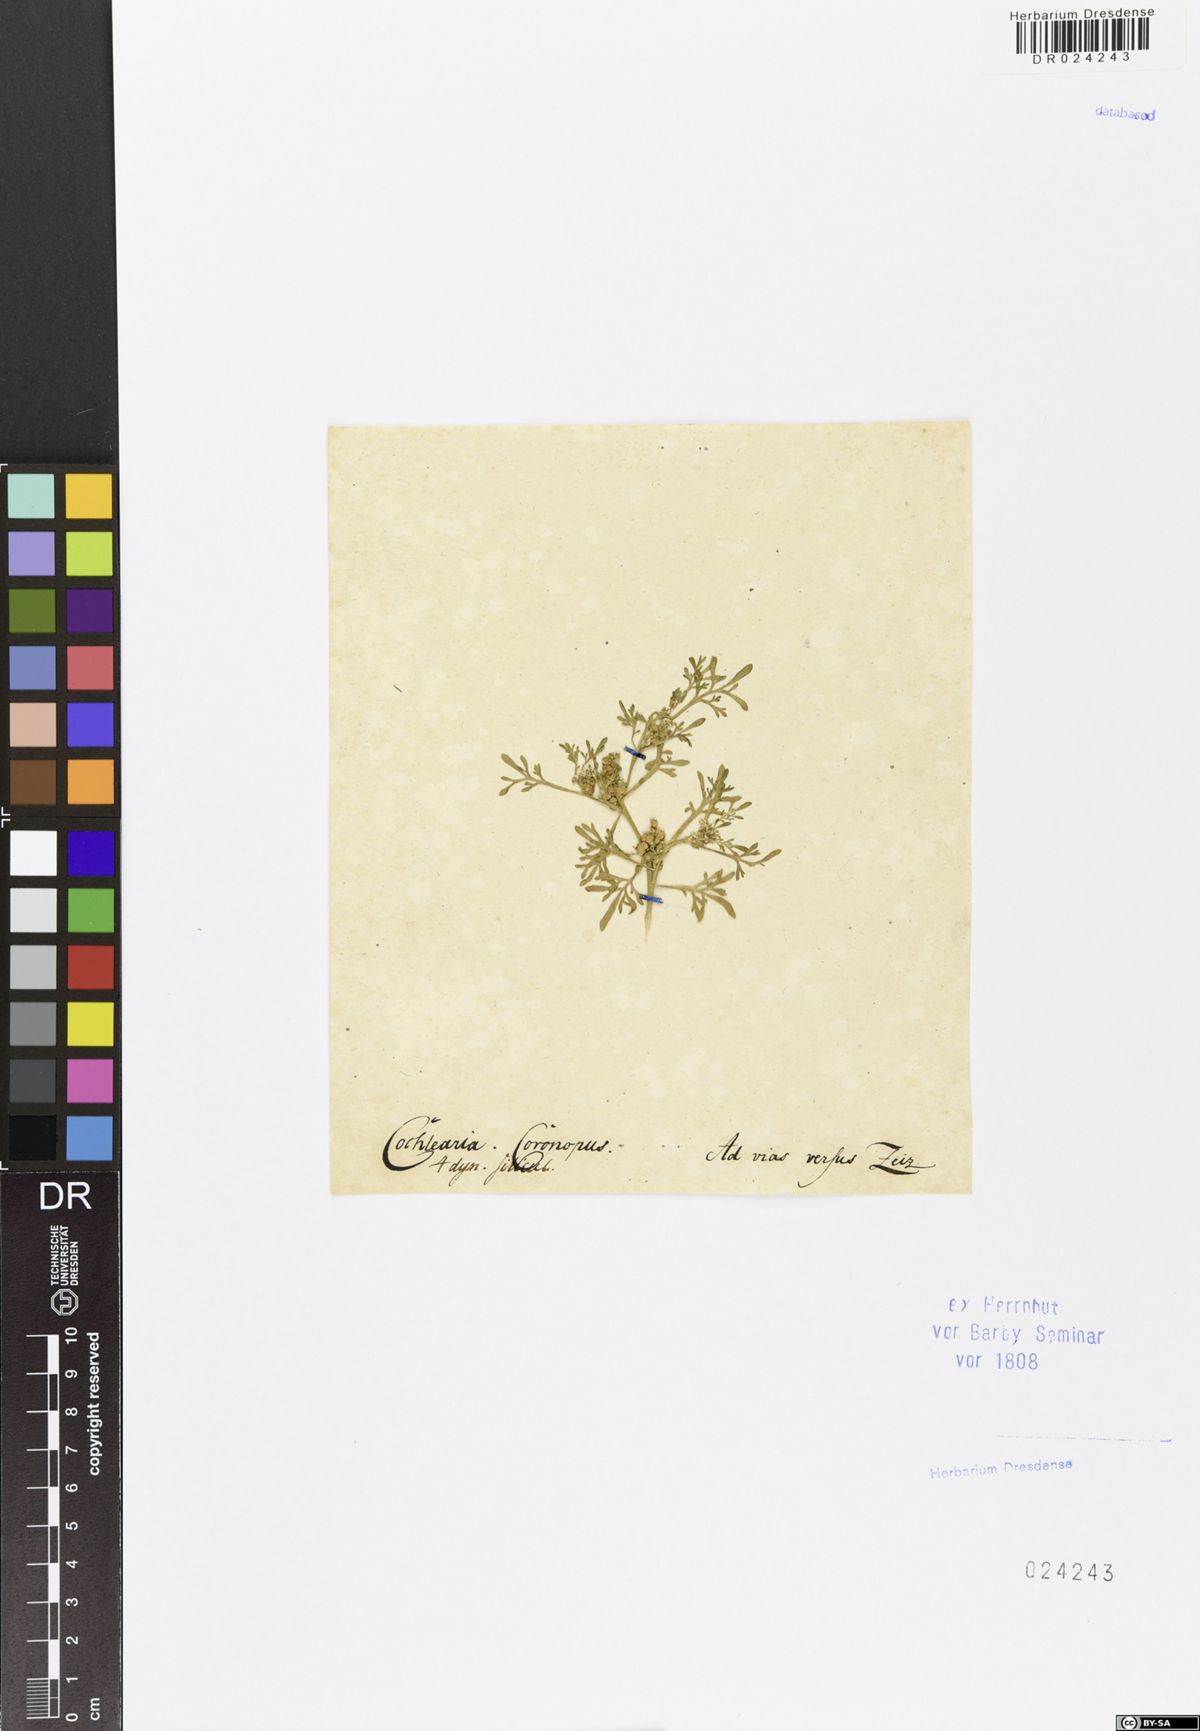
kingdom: Plantae
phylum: Tracheophyta
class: Magnoliopsida
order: Brassicales
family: Brassicaceae
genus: Lepidium
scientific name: Lepidium coronopus
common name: Greater swinecress
